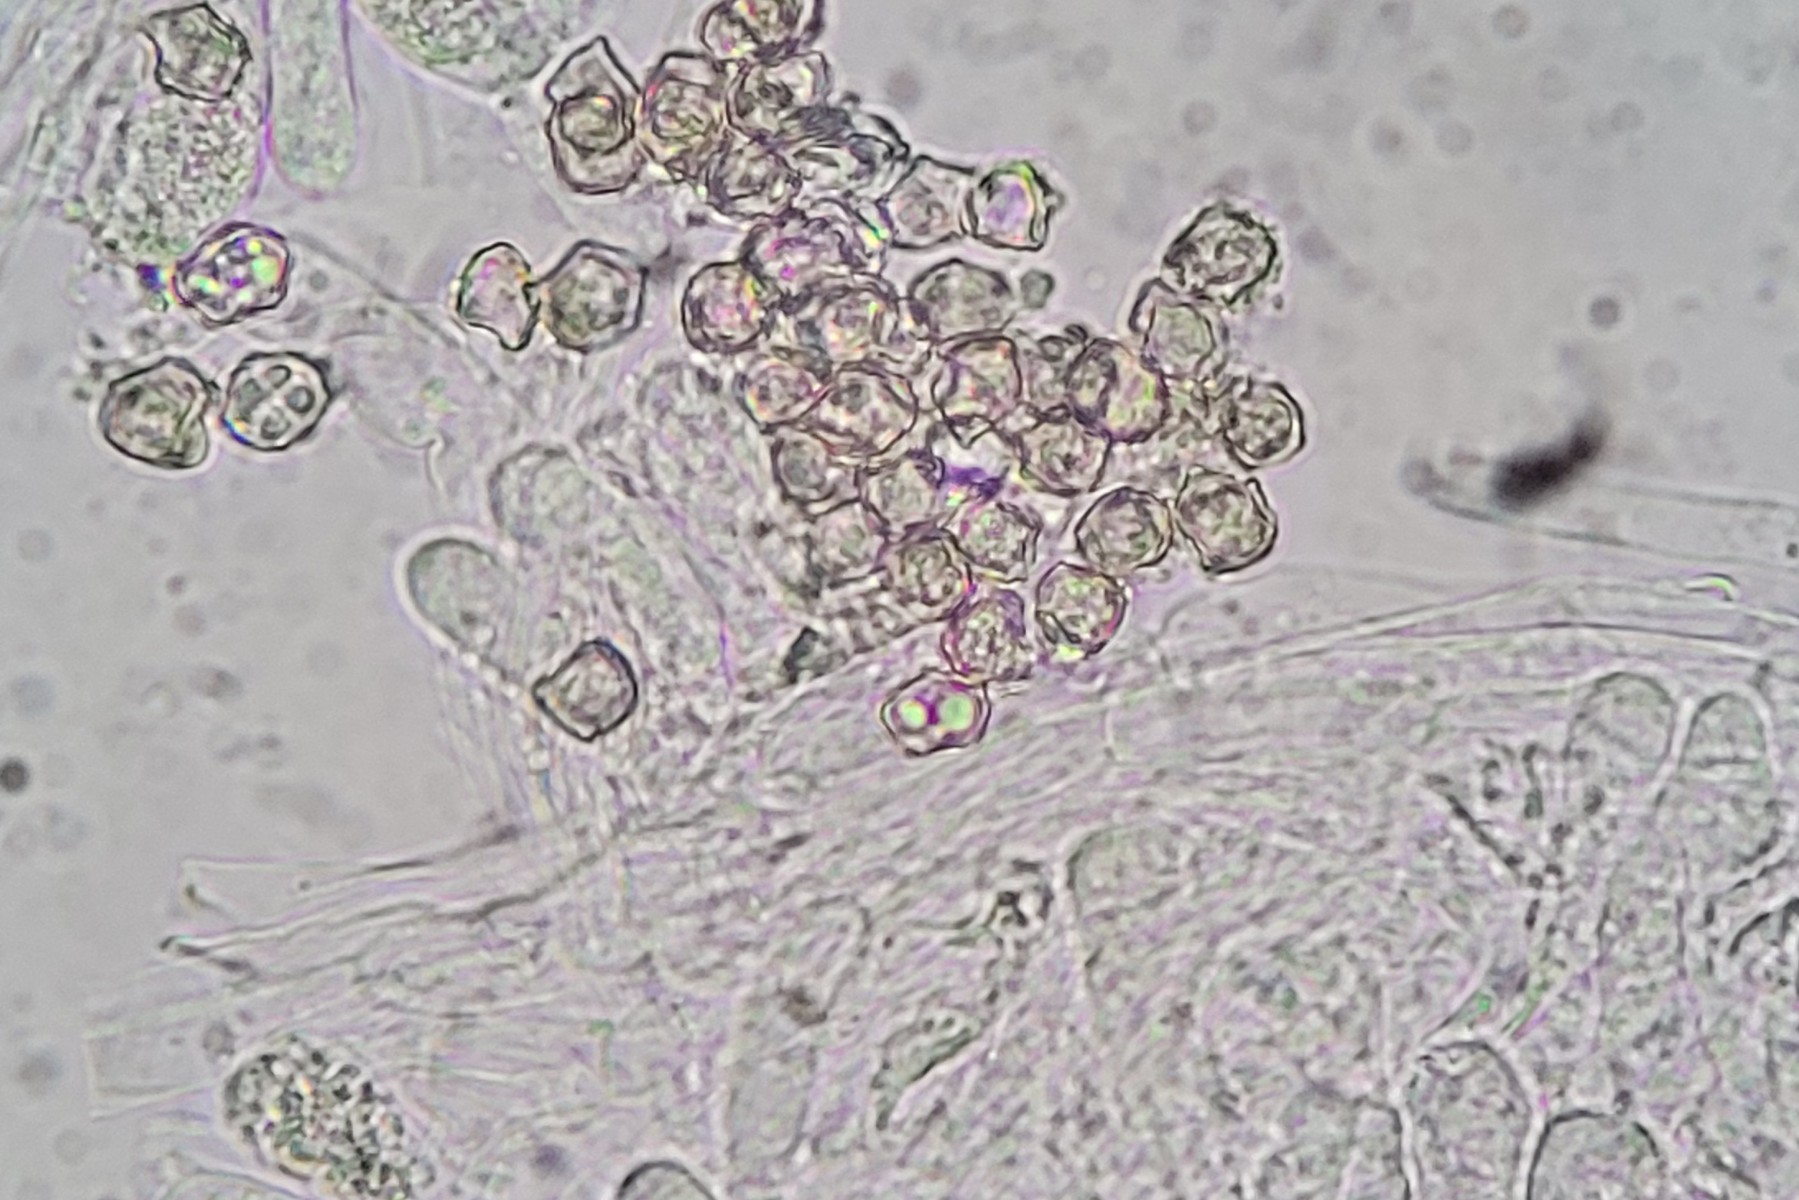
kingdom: Fungi
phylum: Basidiomycota
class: Agaricomycetes
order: Agaricales
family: Entolomataceae
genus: Entoloma
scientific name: Entoloma lividoalbum
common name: lysstokket rødblad
